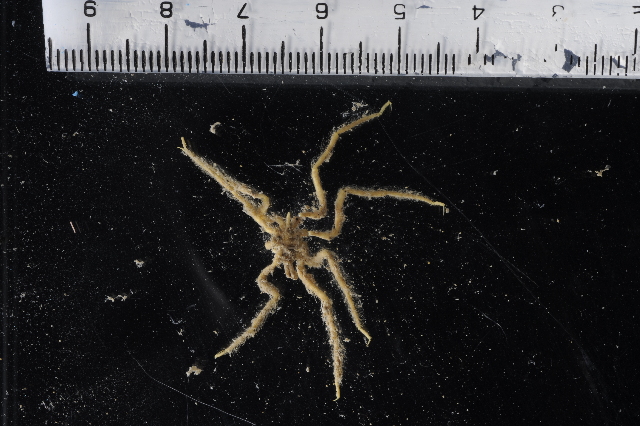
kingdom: Animalia
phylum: Arthropoda
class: Pycnogonida
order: Pantopoda
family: Pallenopsidae
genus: Pallenopsis
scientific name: Pallenopsis
